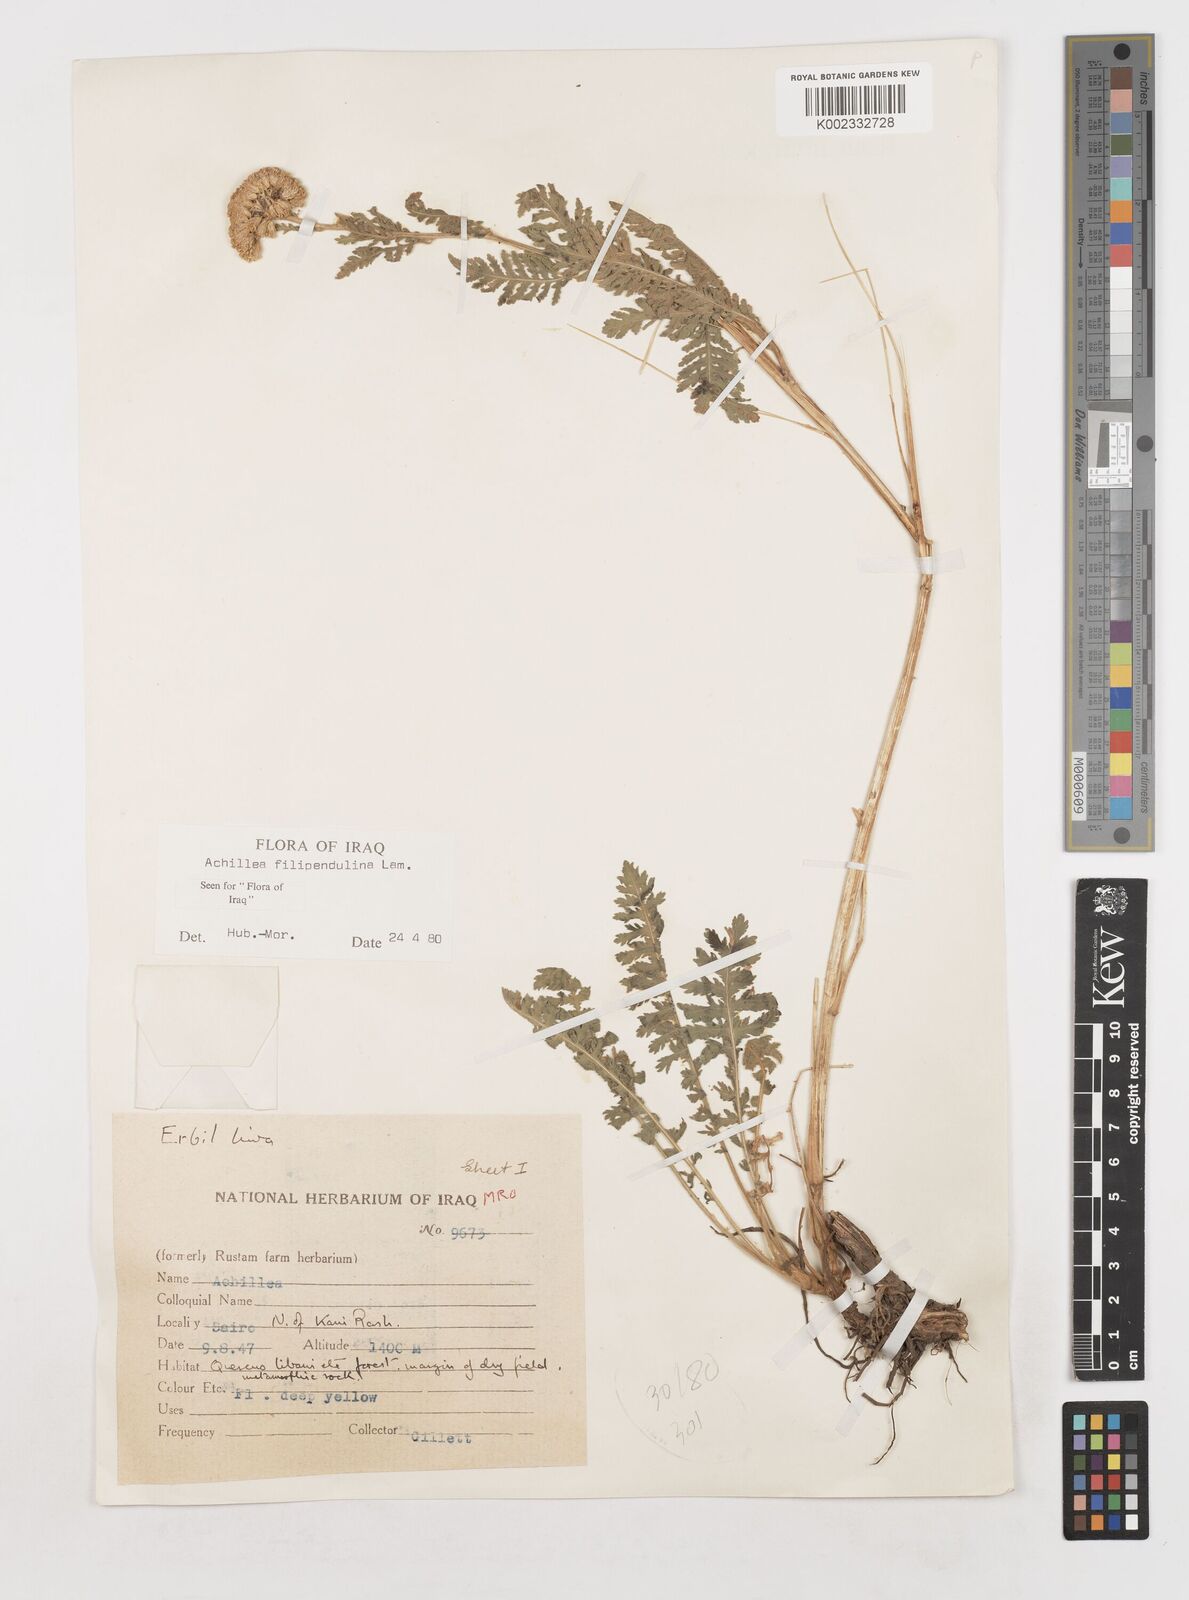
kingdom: Plantae
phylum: Tracheophyta
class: Magnoliopsida
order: Asterales
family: Asteraceae
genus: Achillea
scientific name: Achillea filipendulina
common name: Fernleaf yarrow
